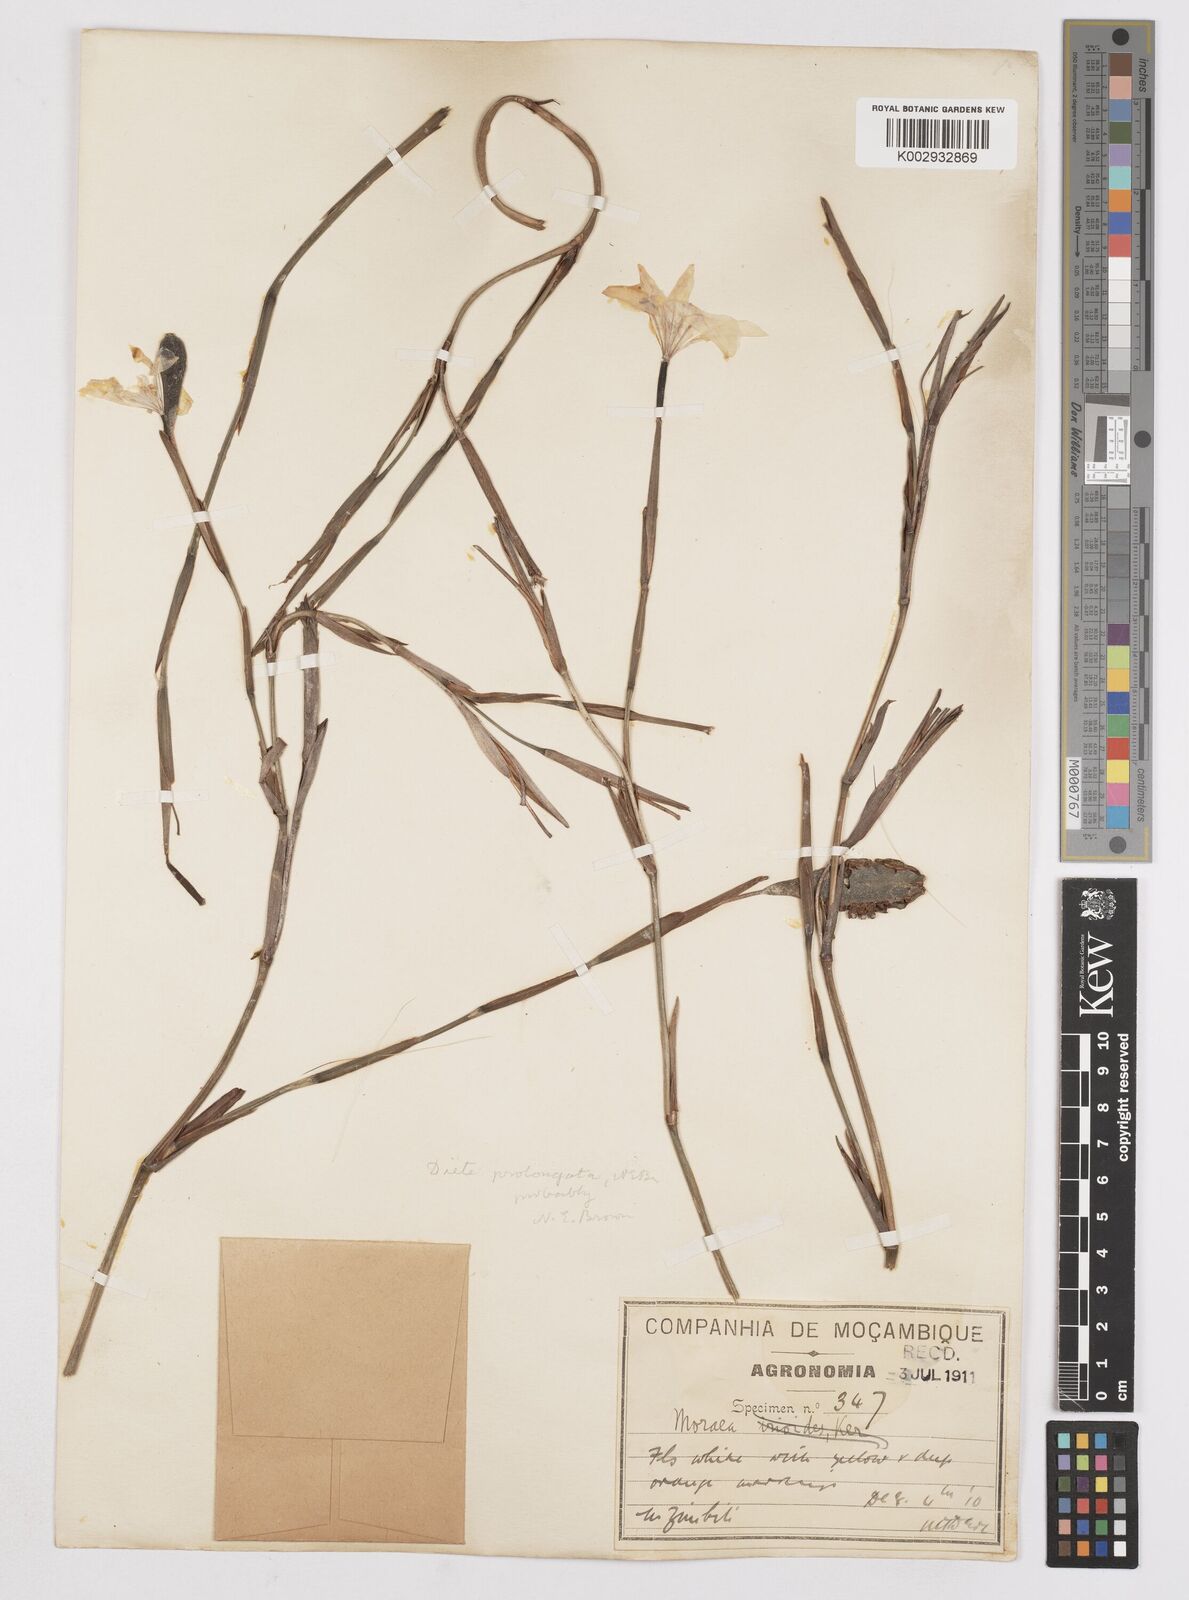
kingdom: Plantae
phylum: Tracheophyta
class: Liliopsida
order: Asparagales
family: Iridaceae
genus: Dietes
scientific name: Dietes iridioides
